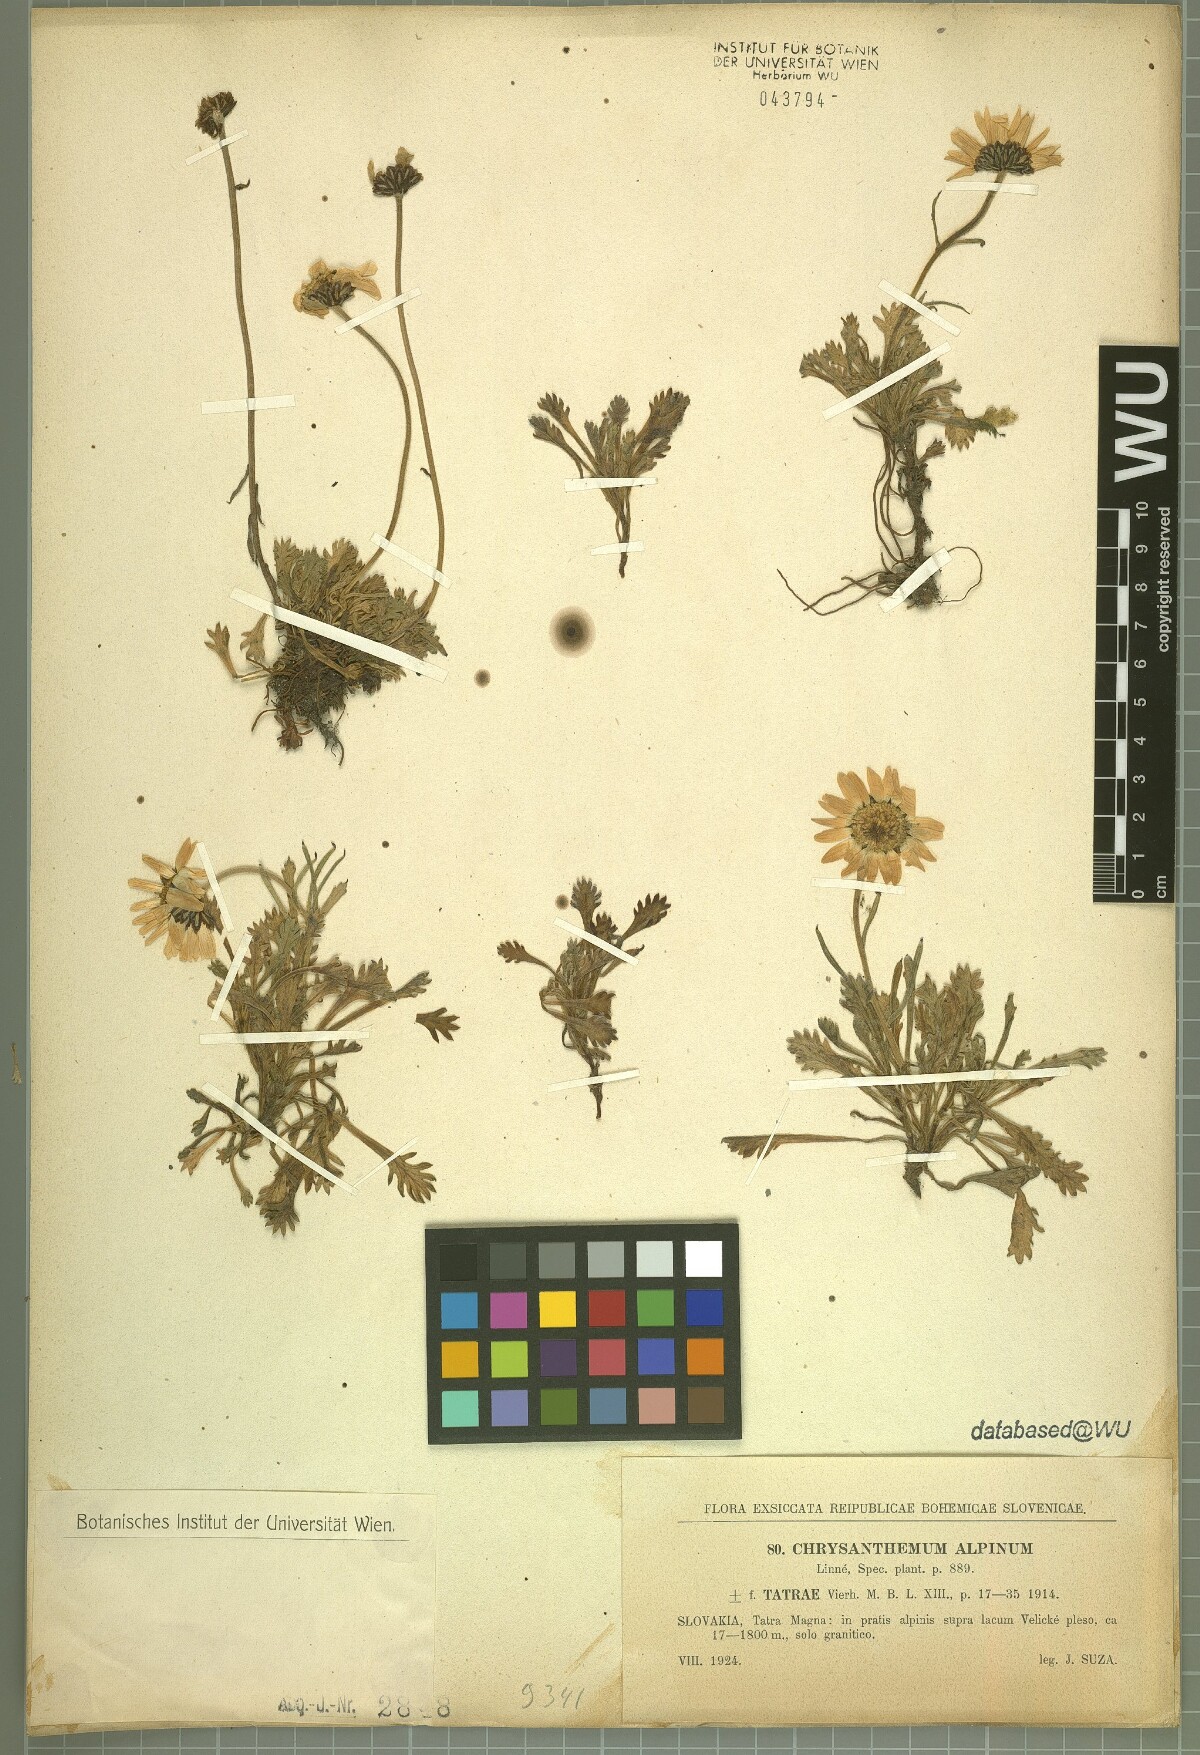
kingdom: Plantae
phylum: Tracheophyta
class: Magnoliopsida
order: Asterales
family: Asteraceae
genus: Leucanthemopsis
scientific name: Leucanthemopsis alpina
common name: Alpine moon daisy
